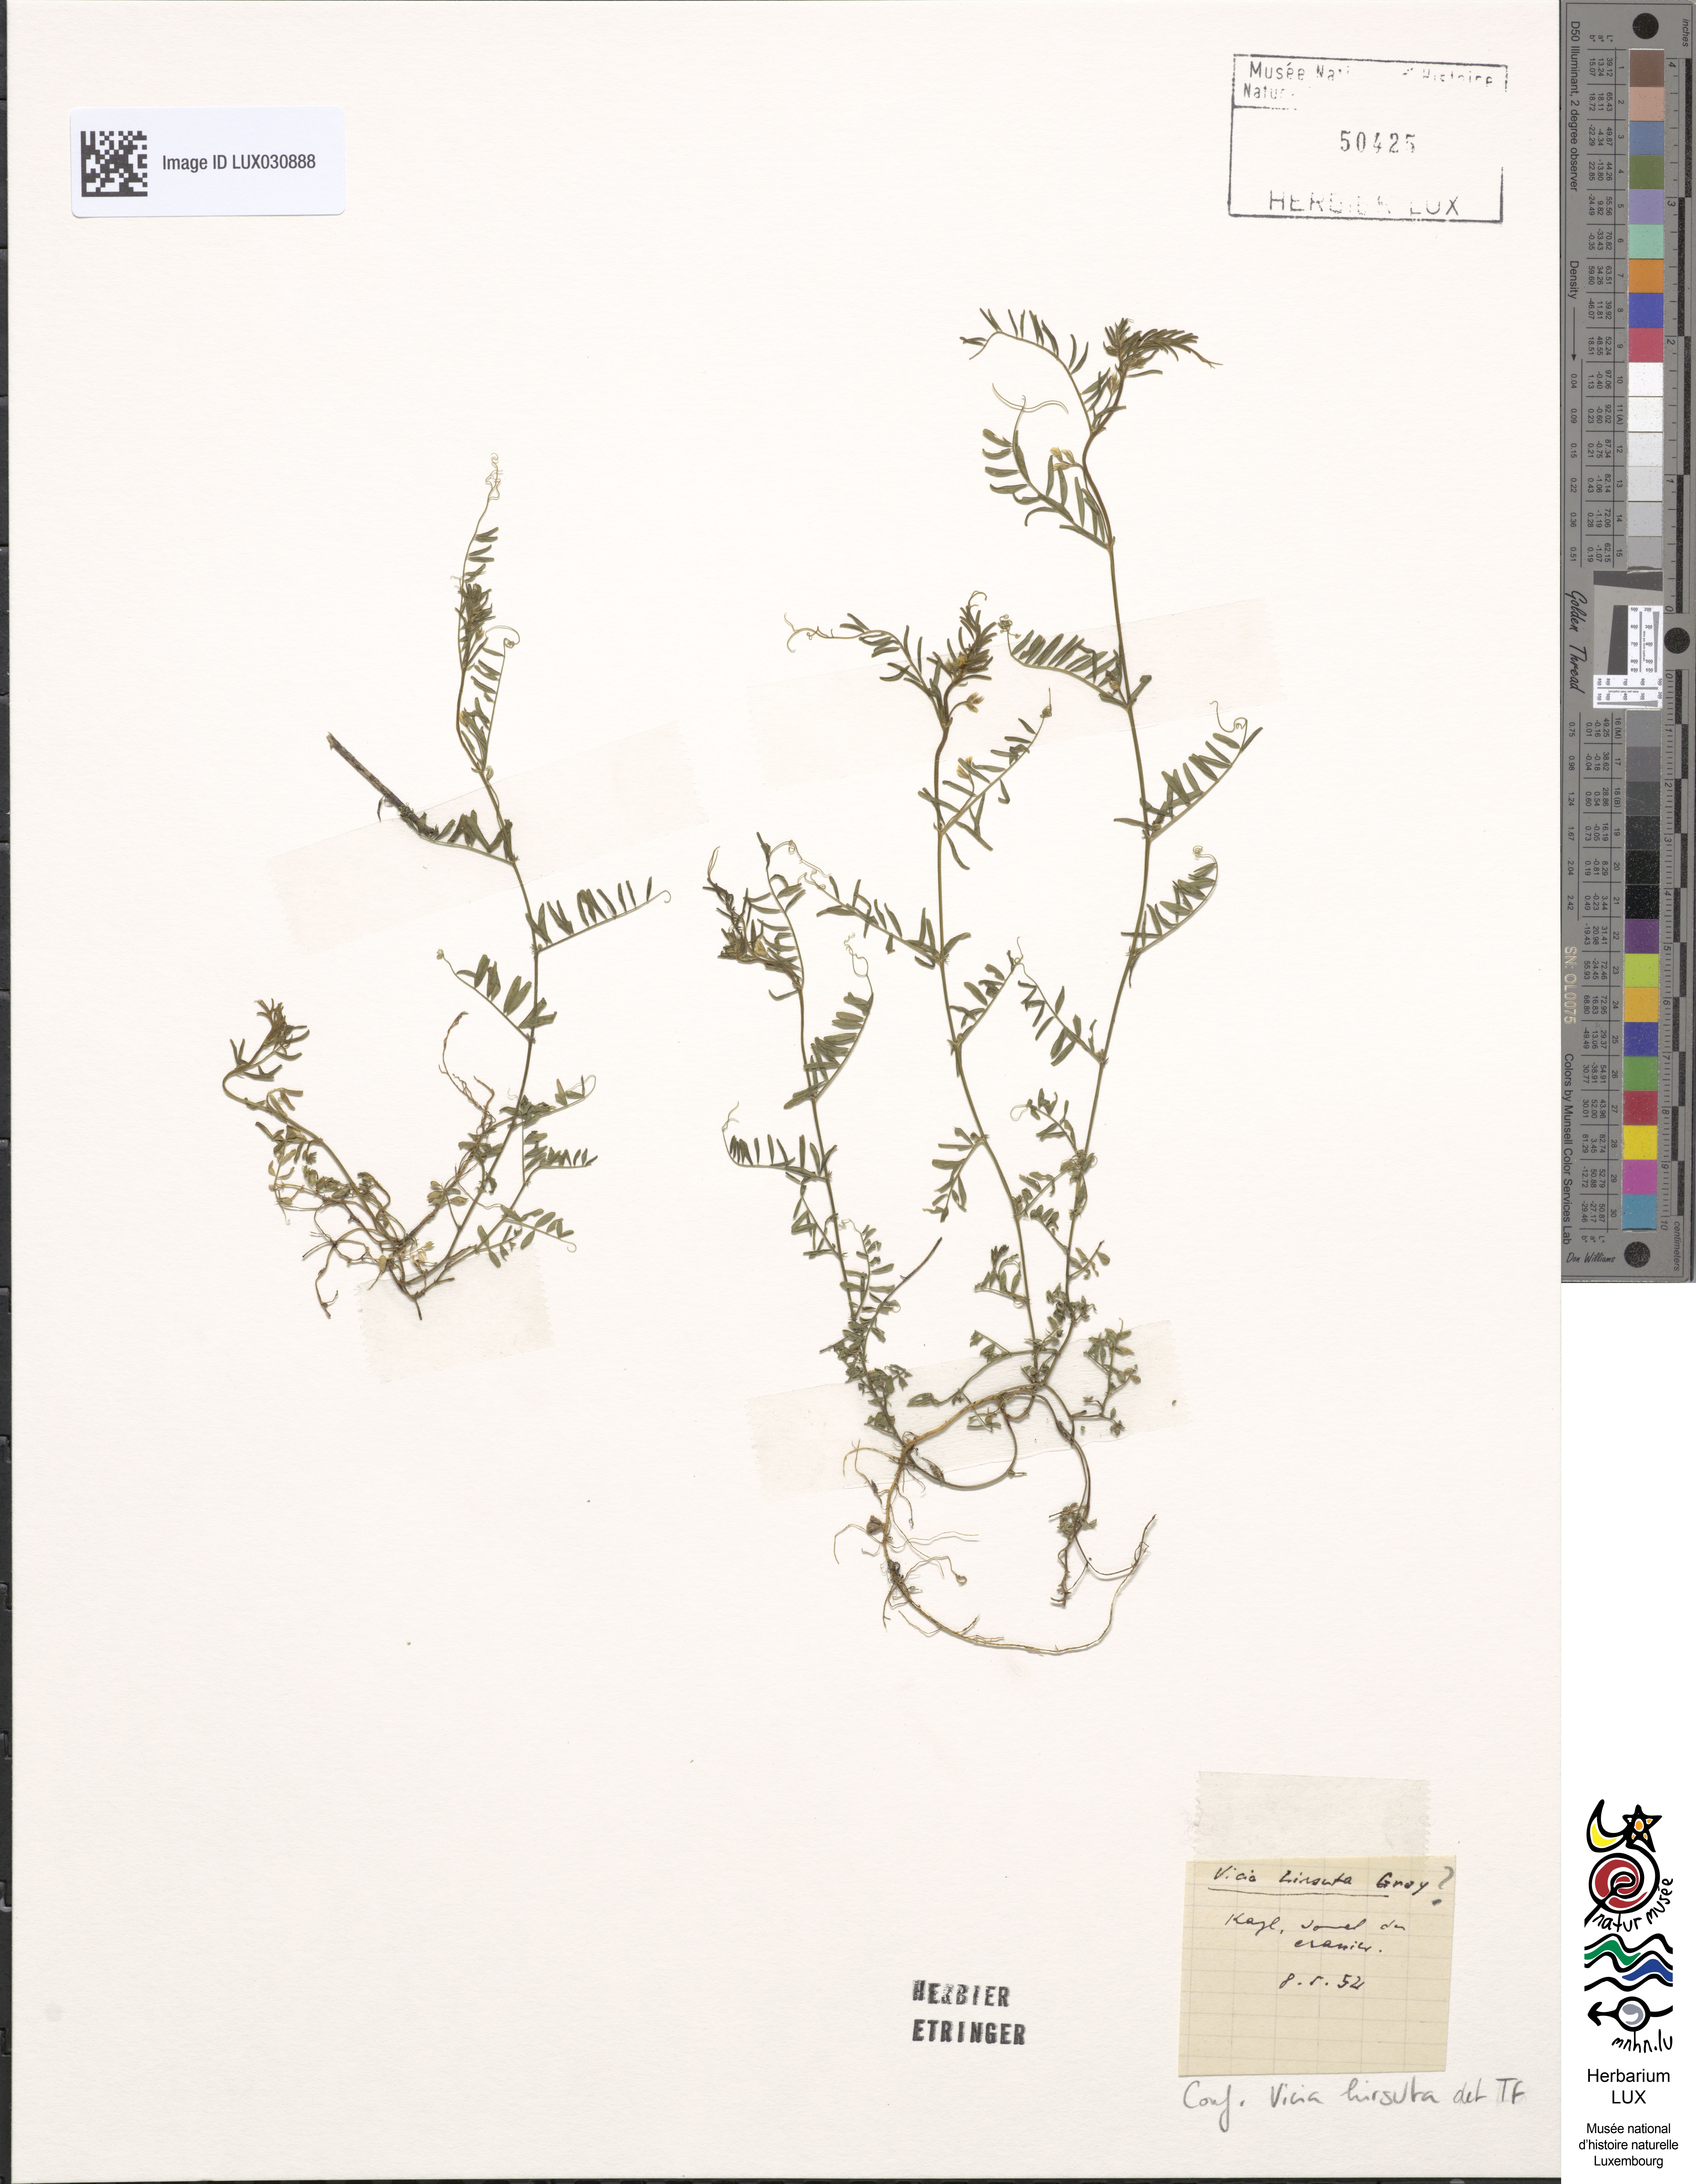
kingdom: Plantae
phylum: Tracheophyta
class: Magnoliopsida
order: Fabales
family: Fabaceae
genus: Vicia
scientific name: Vicia hirsuta
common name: Tiny vetch
